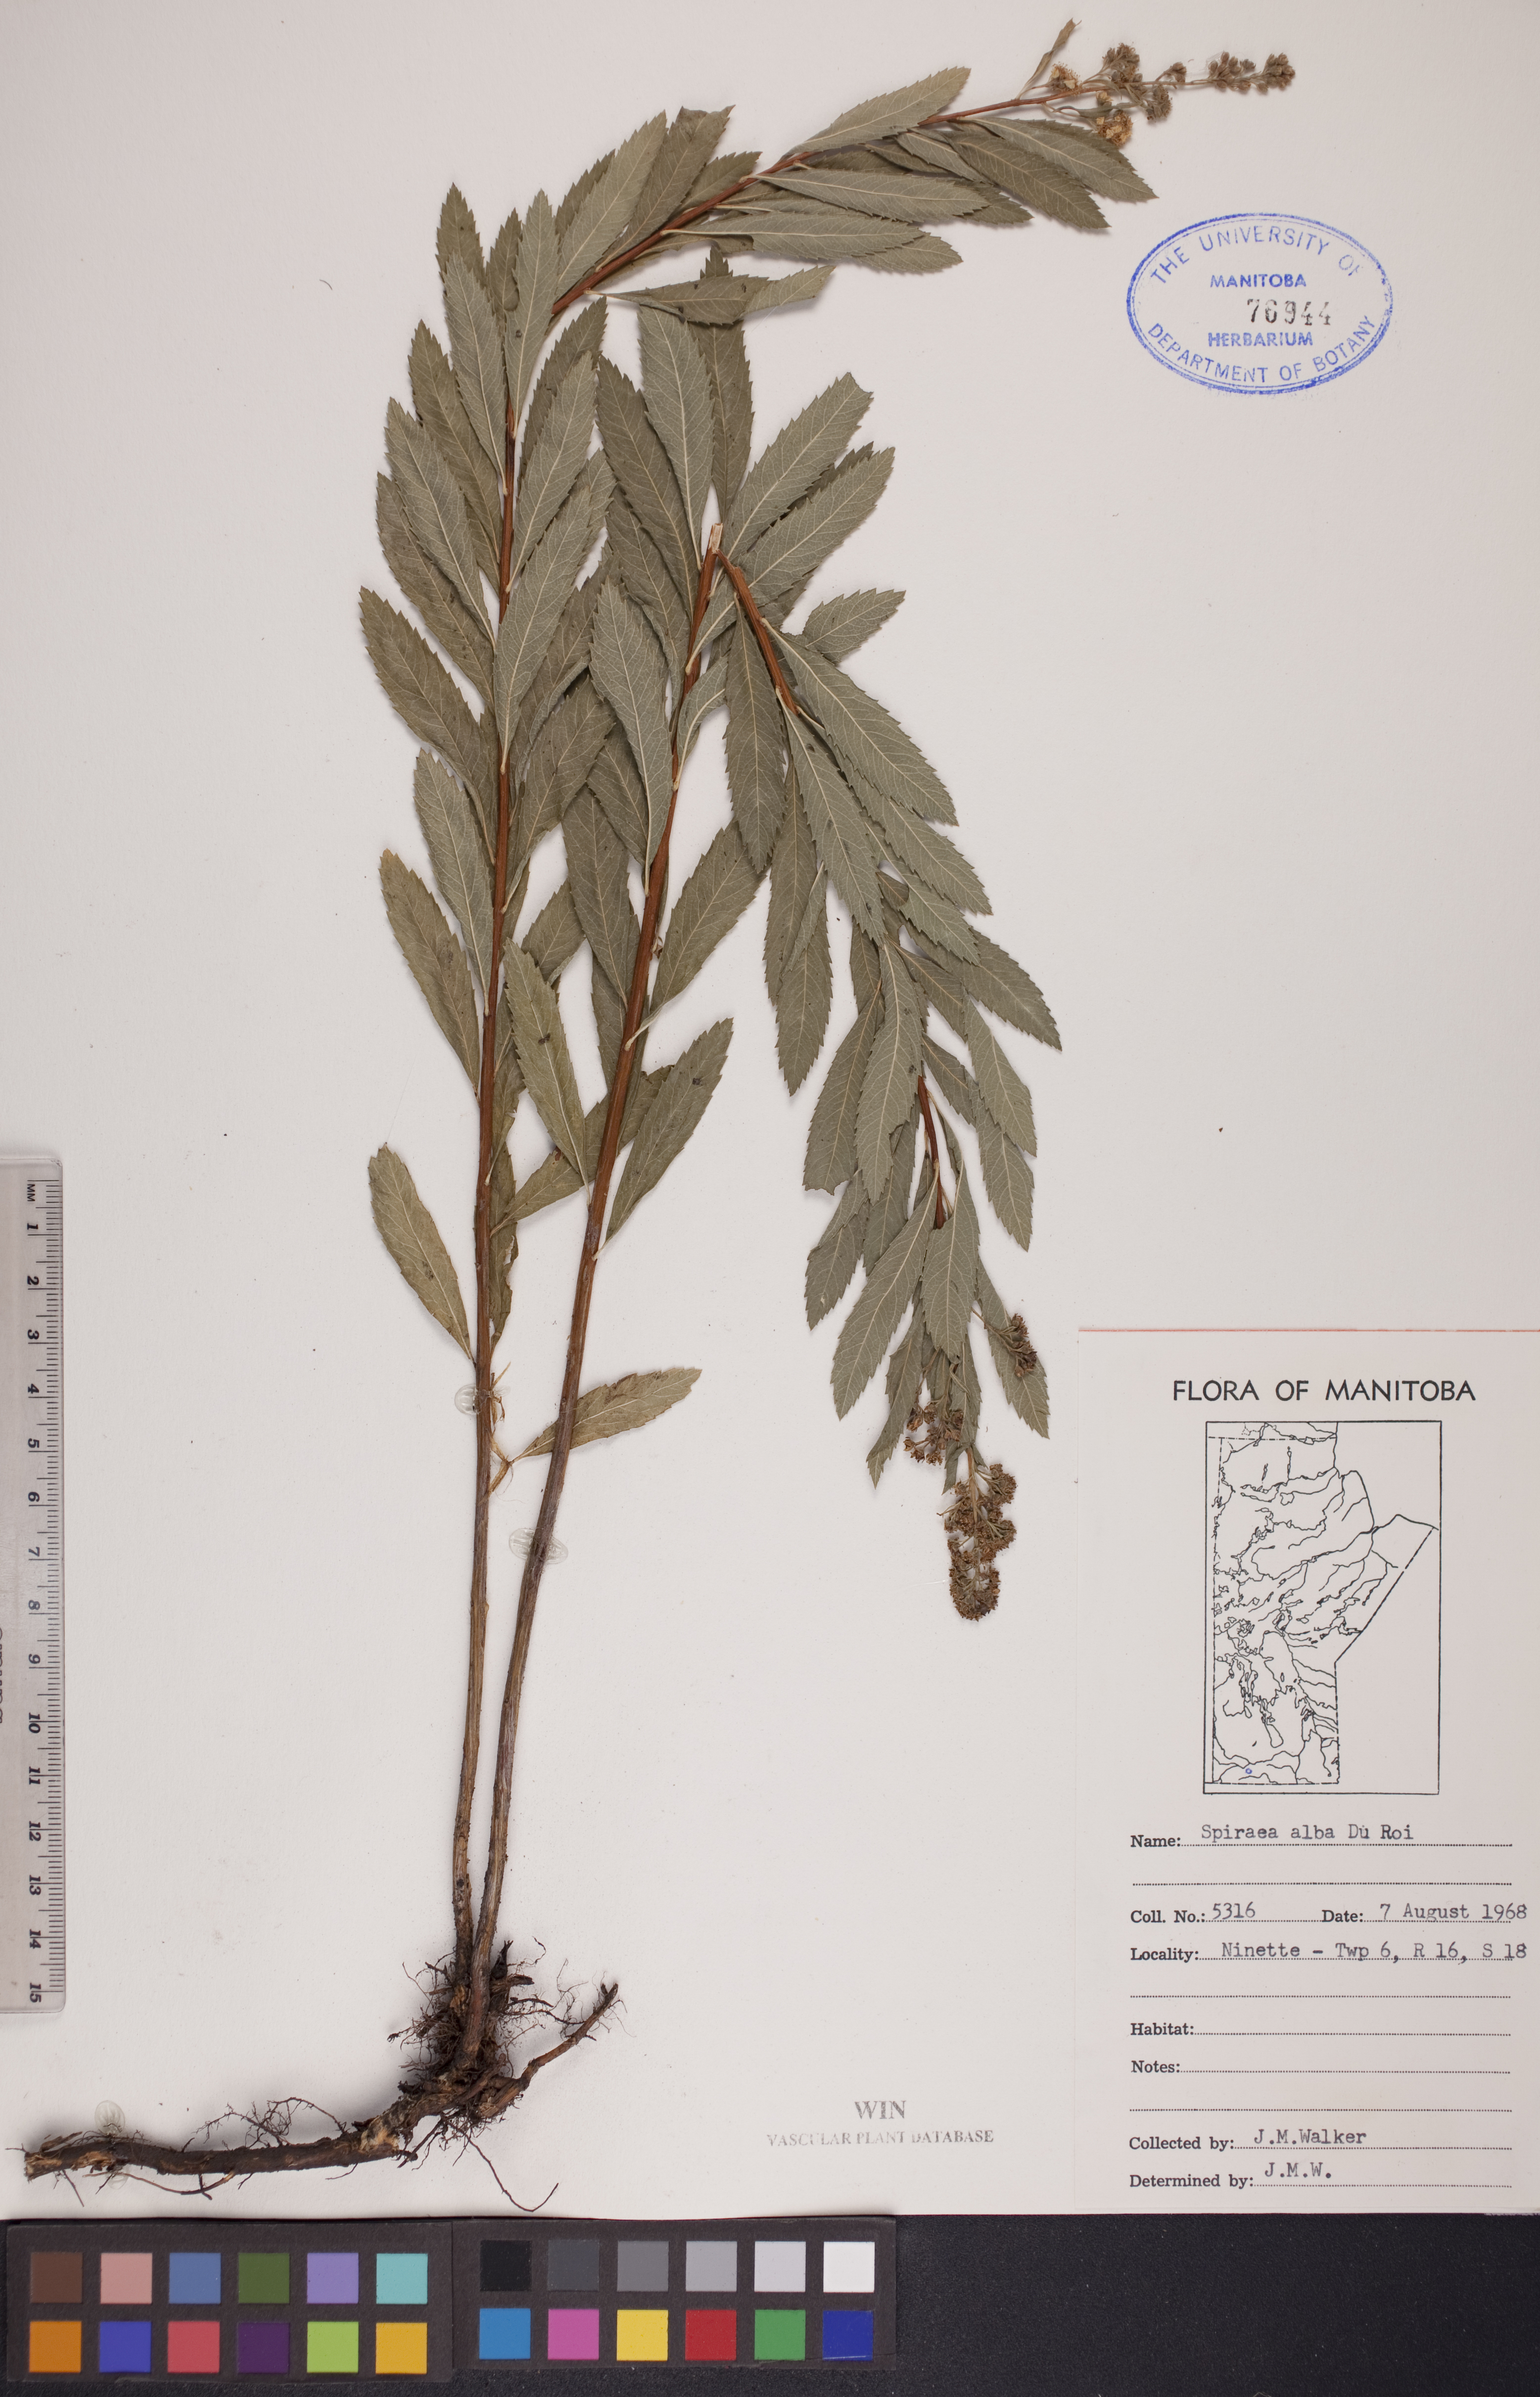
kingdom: Plantae
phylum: Tracheophyta
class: Magnoliopsida
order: Rosales
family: Rosaceae
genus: Spiraea
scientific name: Spiraea alba
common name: Pale bridewort
